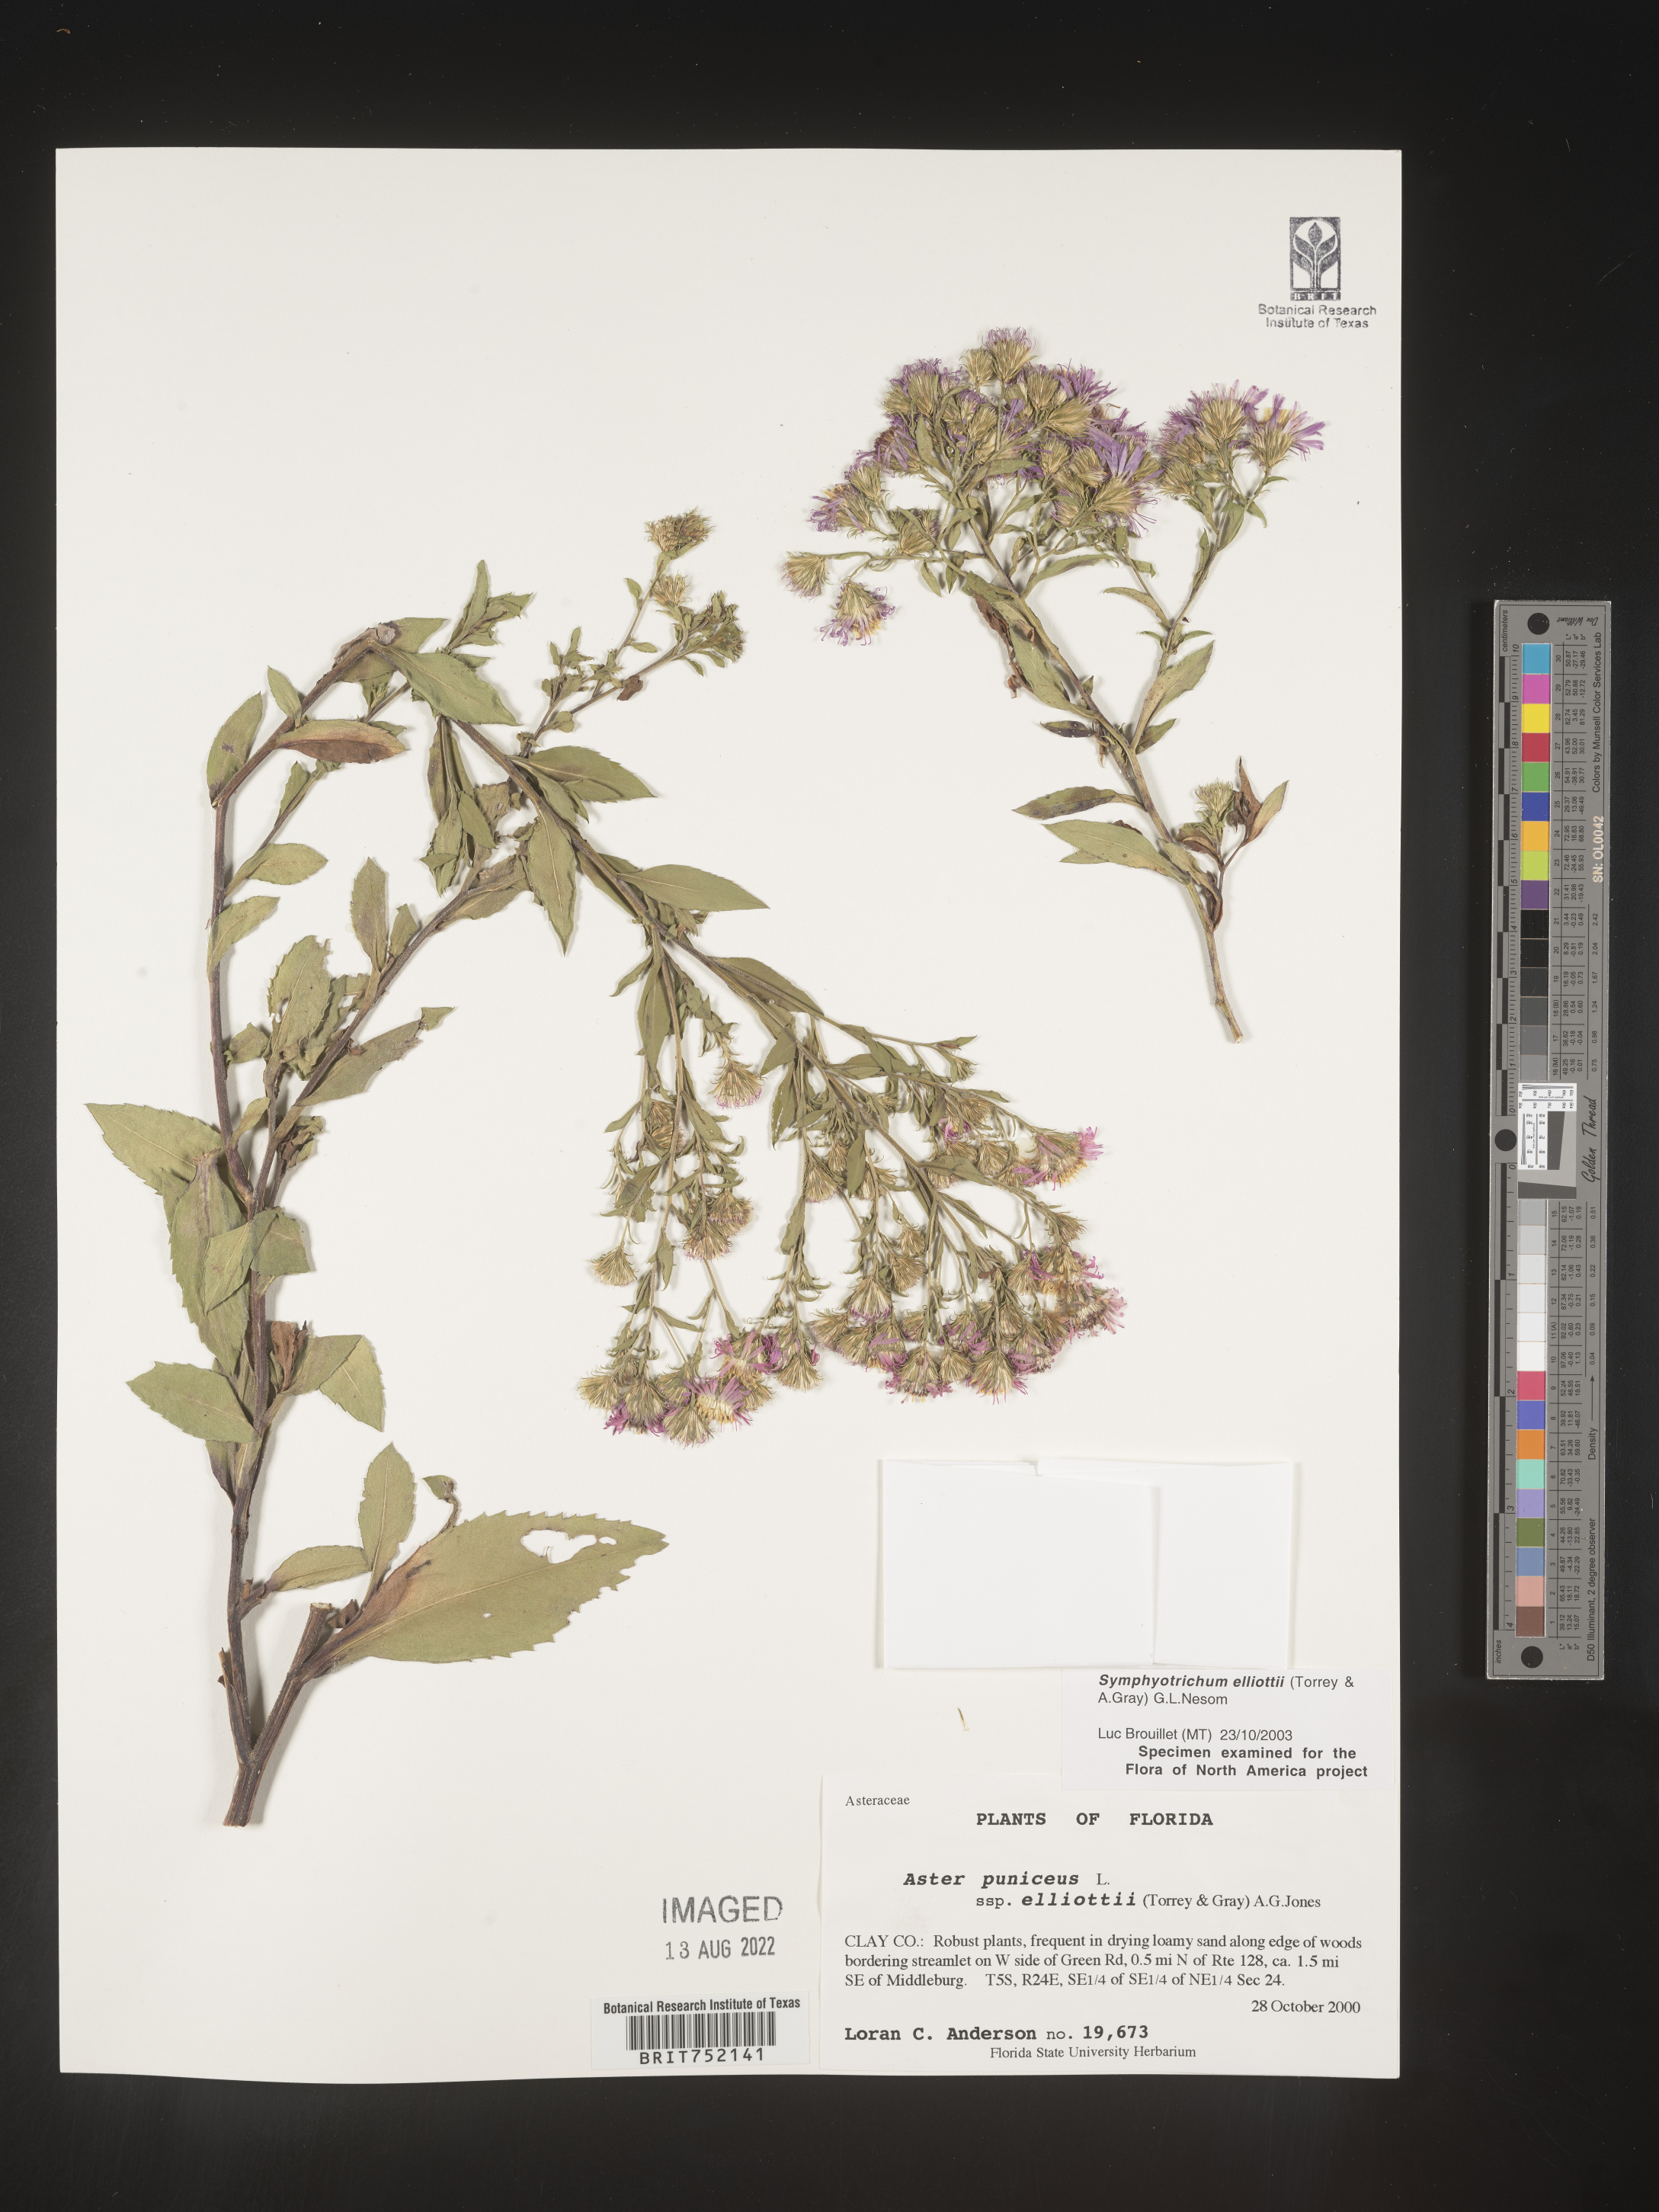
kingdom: Plantae
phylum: Tracheophyta
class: Magnoliopsida
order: Asterales
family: Asteraceae
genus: Symphyotrichum
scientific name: Symphyotrichum elliottii
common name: Southern swamp aster
